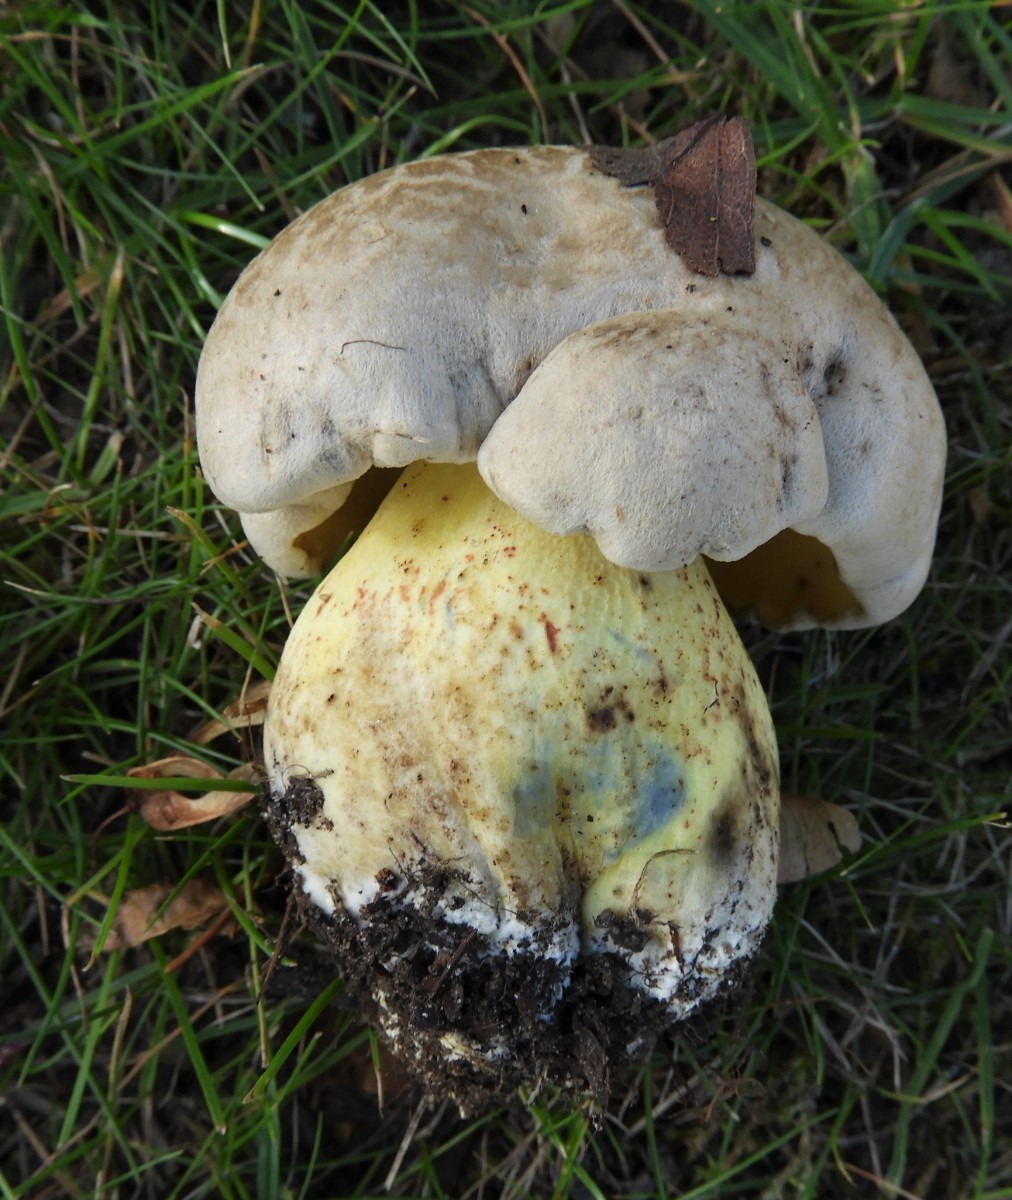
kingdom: Fungi
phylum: Basidiomycota
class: Agaricomycetes
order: Boletales
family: Boletaceae
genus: Caloboletus
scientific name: Caloboletus radicans
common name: rod-rørhat
